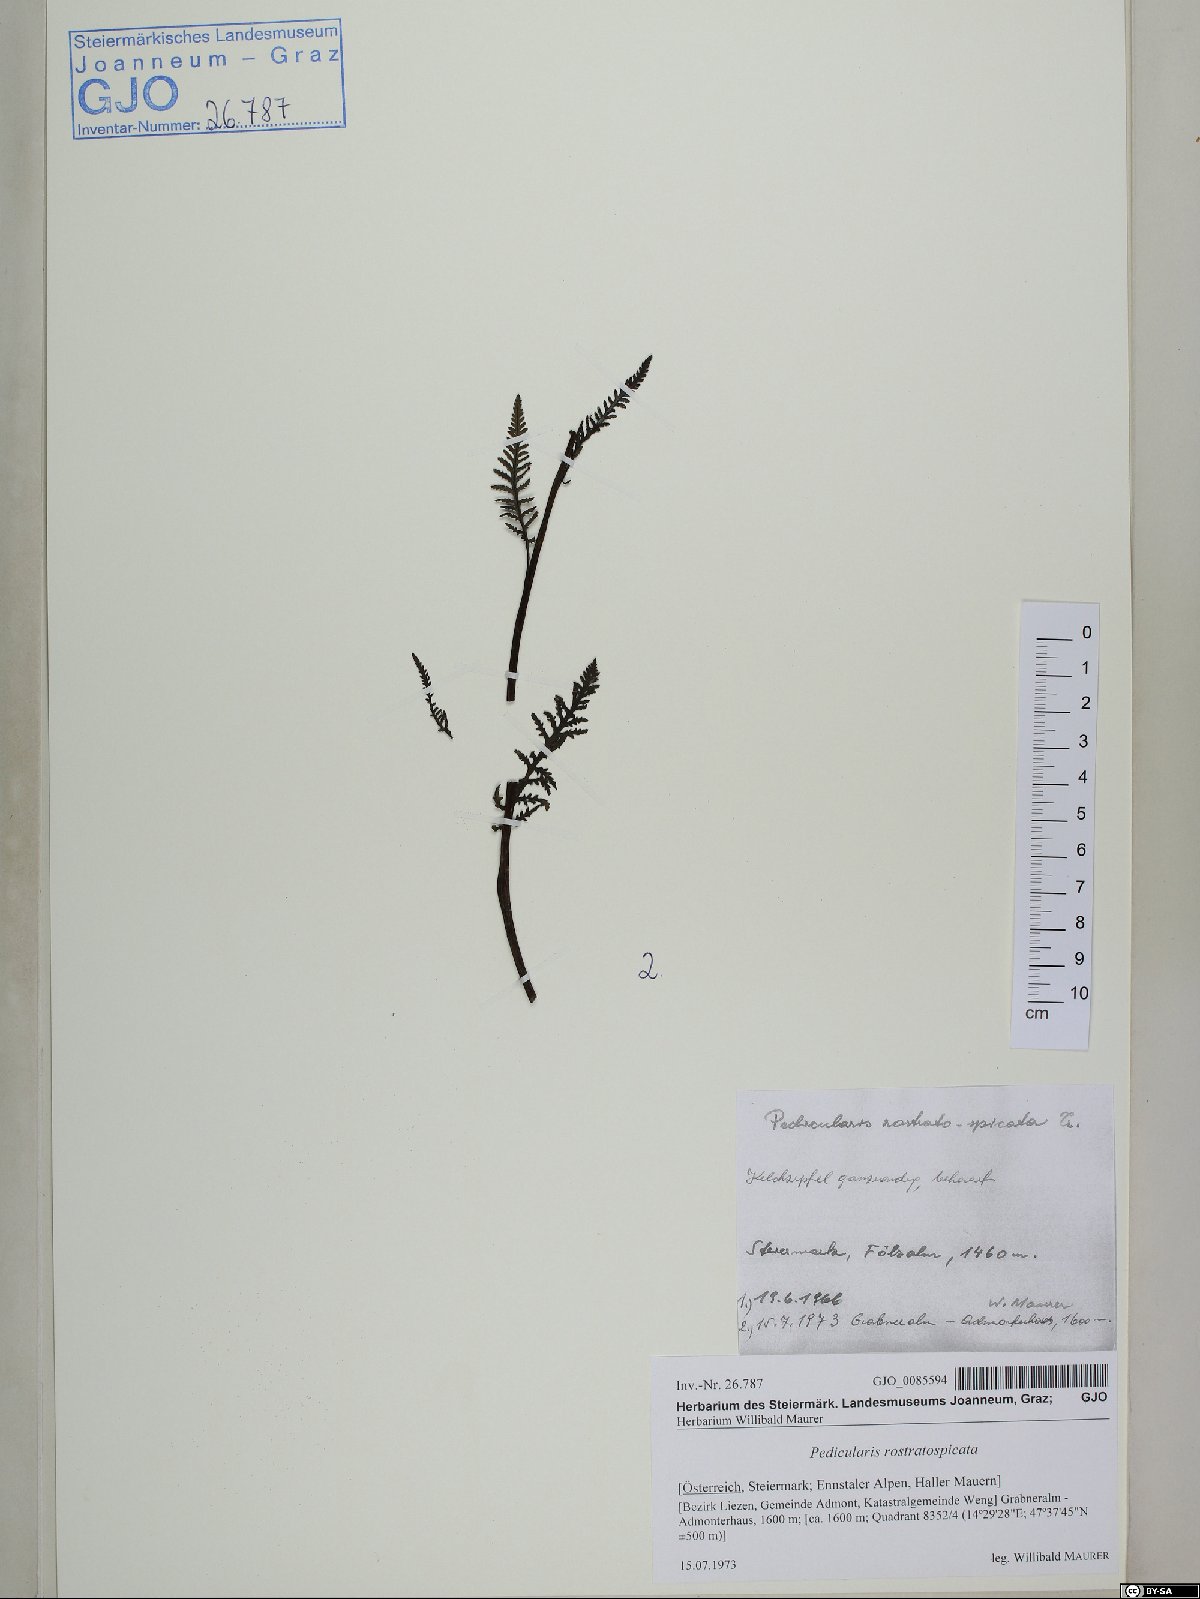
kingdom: Plantae
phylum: Tracheophyta
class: Magnoliopsida
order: Lamiales
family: Orobanchaceae
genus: Pedicularis
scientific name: Pedicularis rostratospicata
